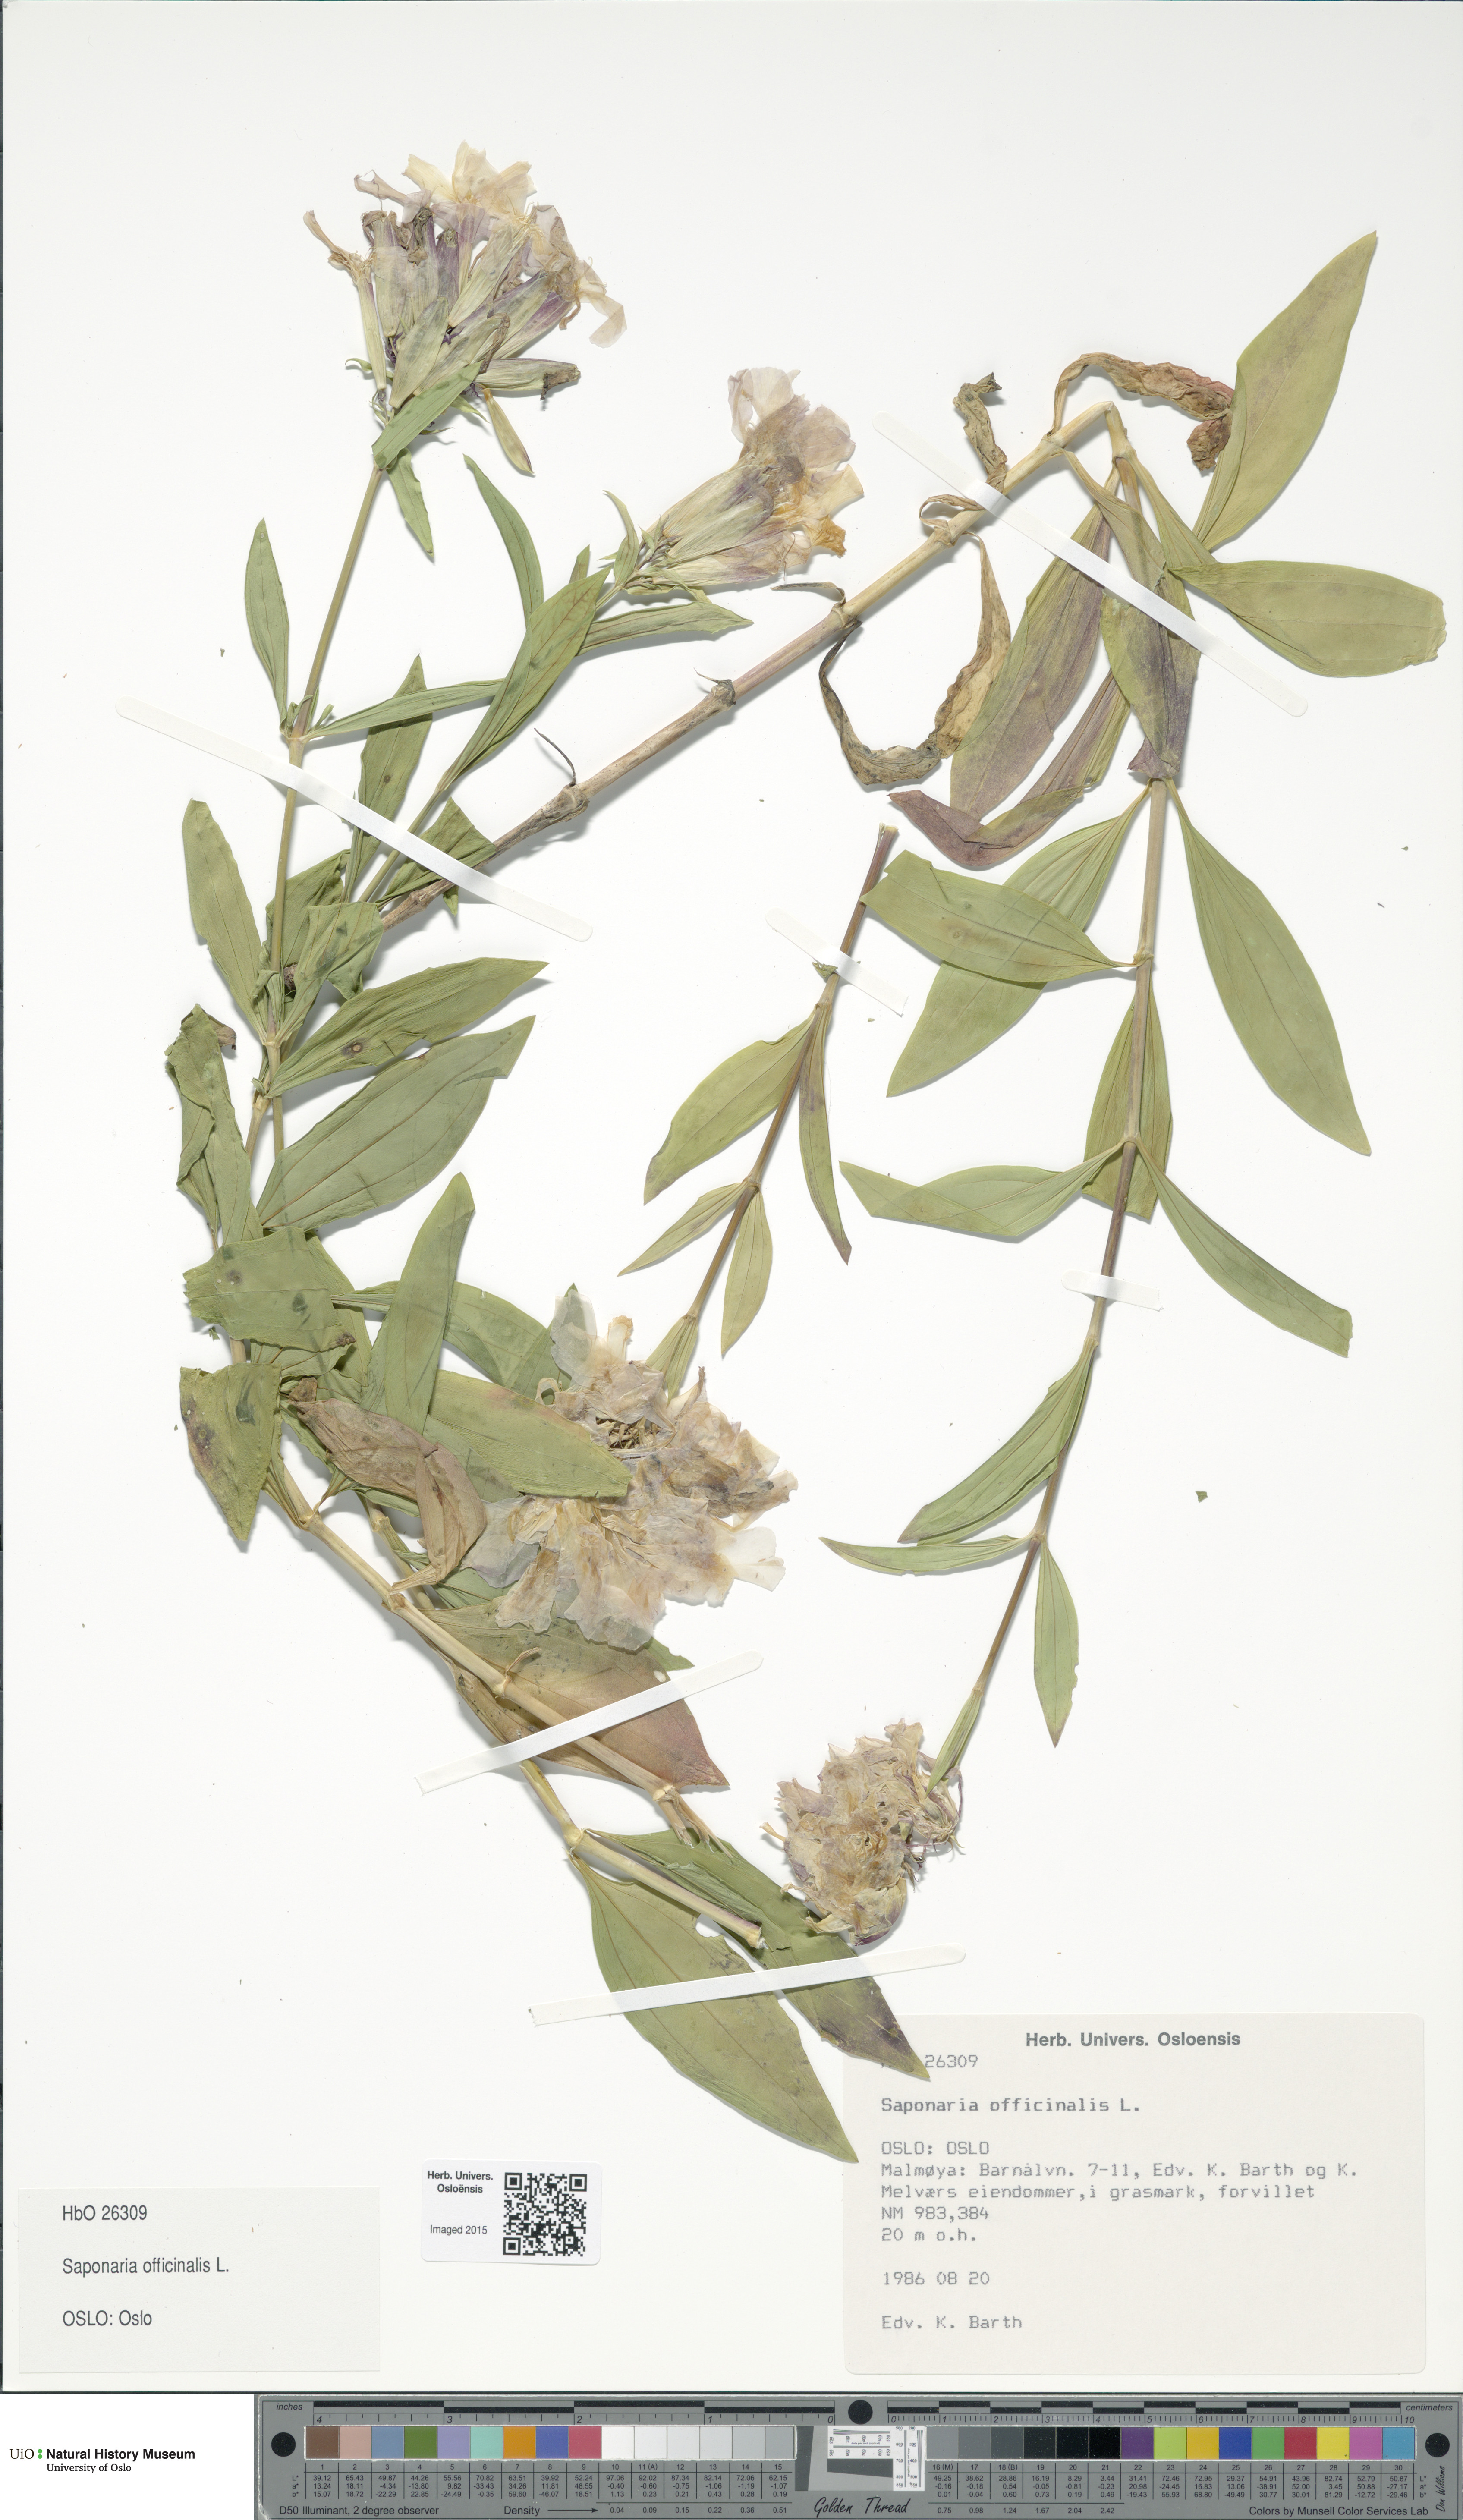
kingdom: Plantae
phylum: Tracheophyta
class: Magnoliopsida
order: Caryophyllales
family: Caryophyllaceae
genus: Saponaria
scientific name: Saponaria officinalis
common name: Soapwort
